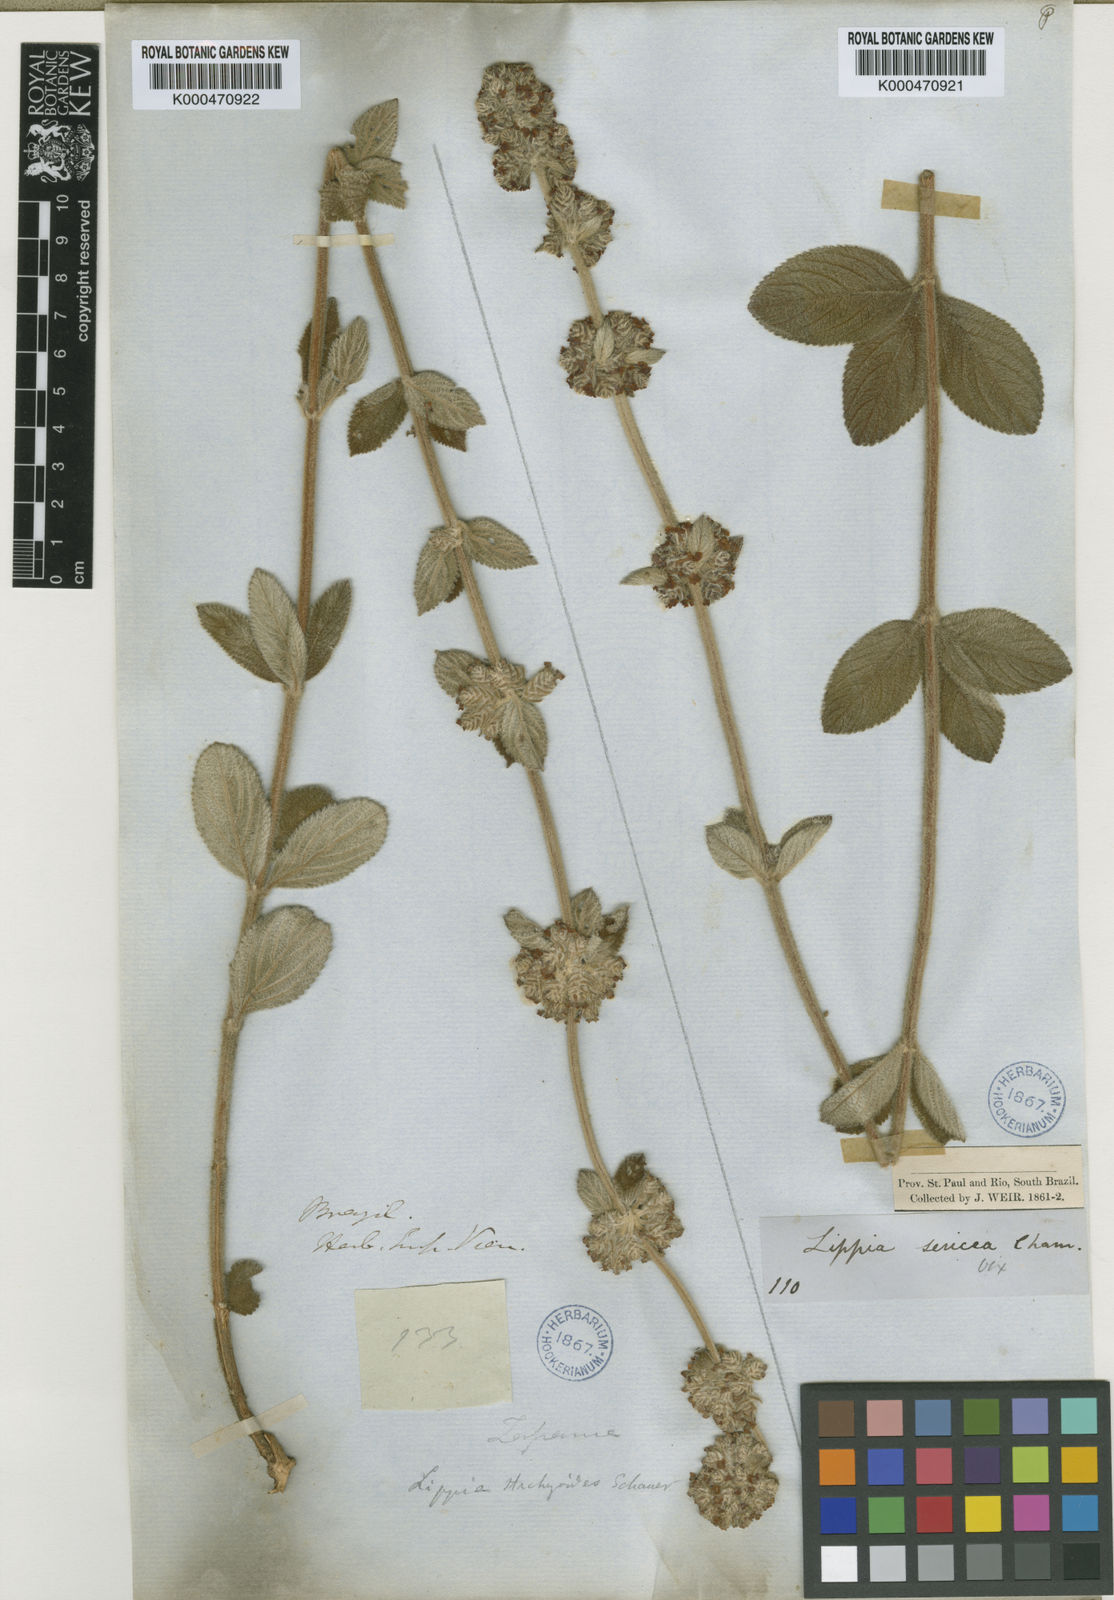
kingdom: Plantae
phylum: Tracheophyta
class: Magnoliopsida
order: Lamiales
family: Verbenaceae
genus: Lippia
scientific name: Lippia
